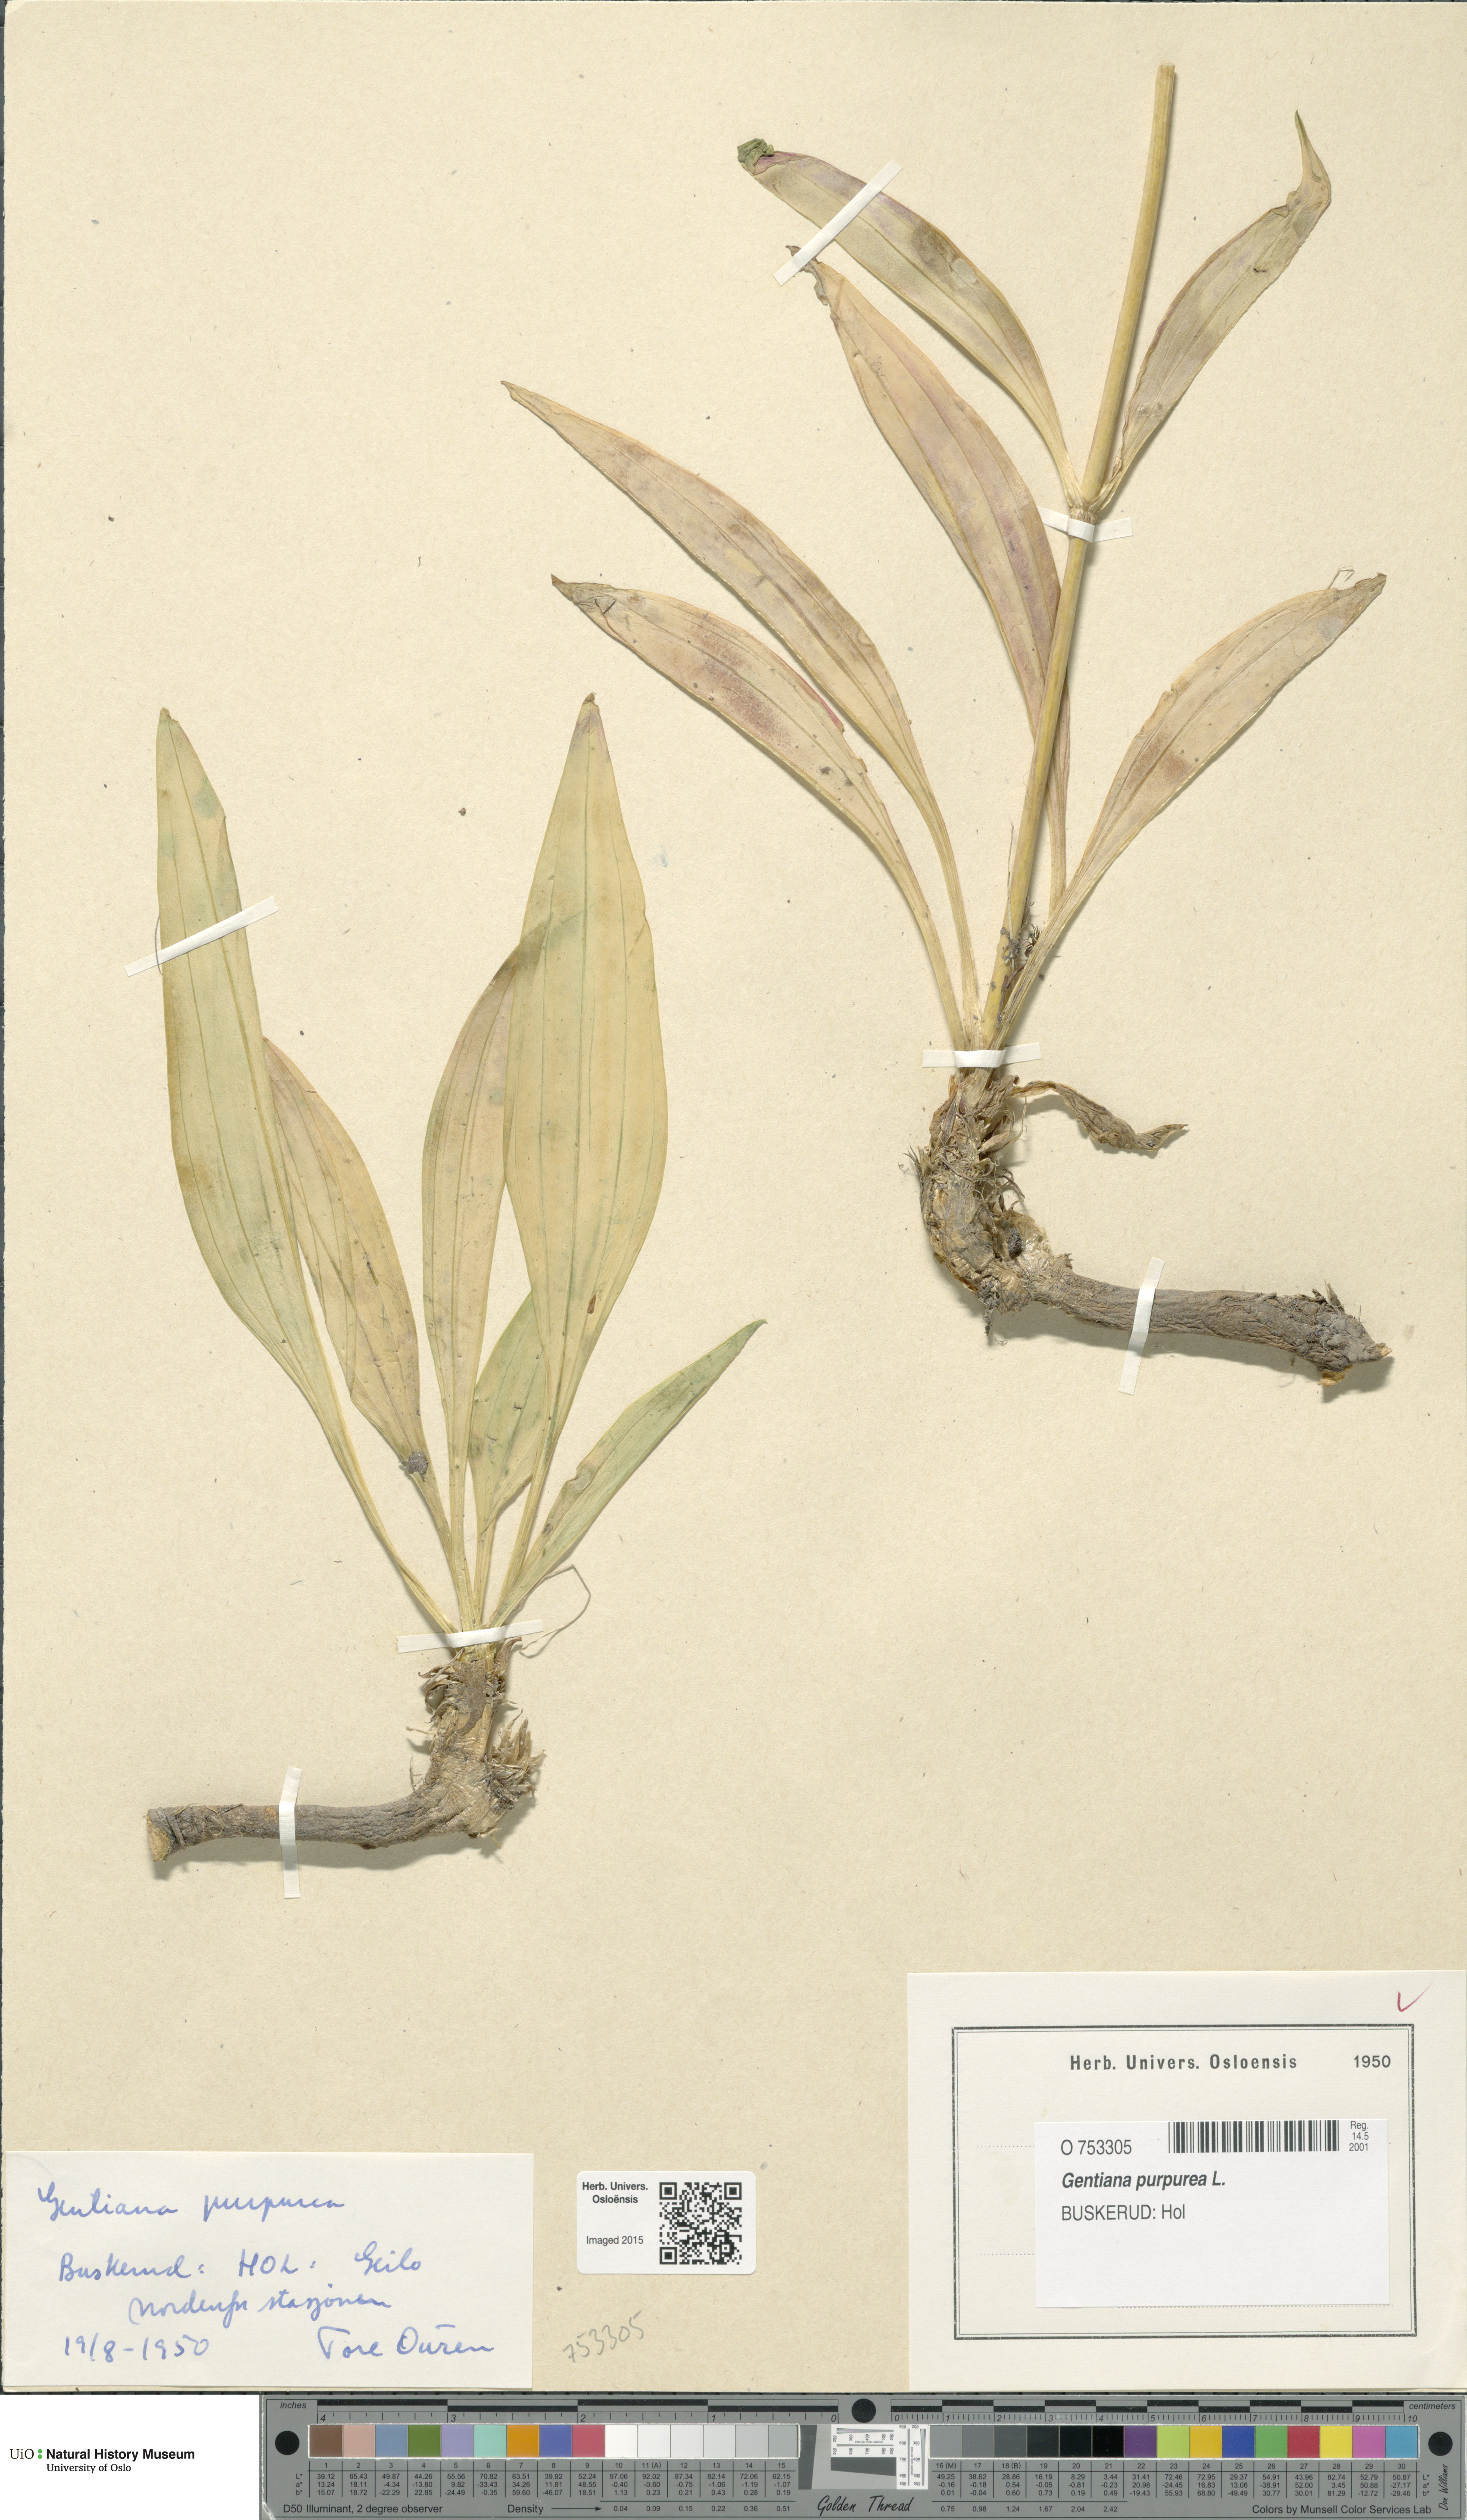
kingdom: Plantae
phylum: Tracheophyta
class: Magnoliopsida
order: Gentianales
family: Gentianaceae
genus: Gentiana
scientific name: Gentiana purpurea
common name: Purple gentian
